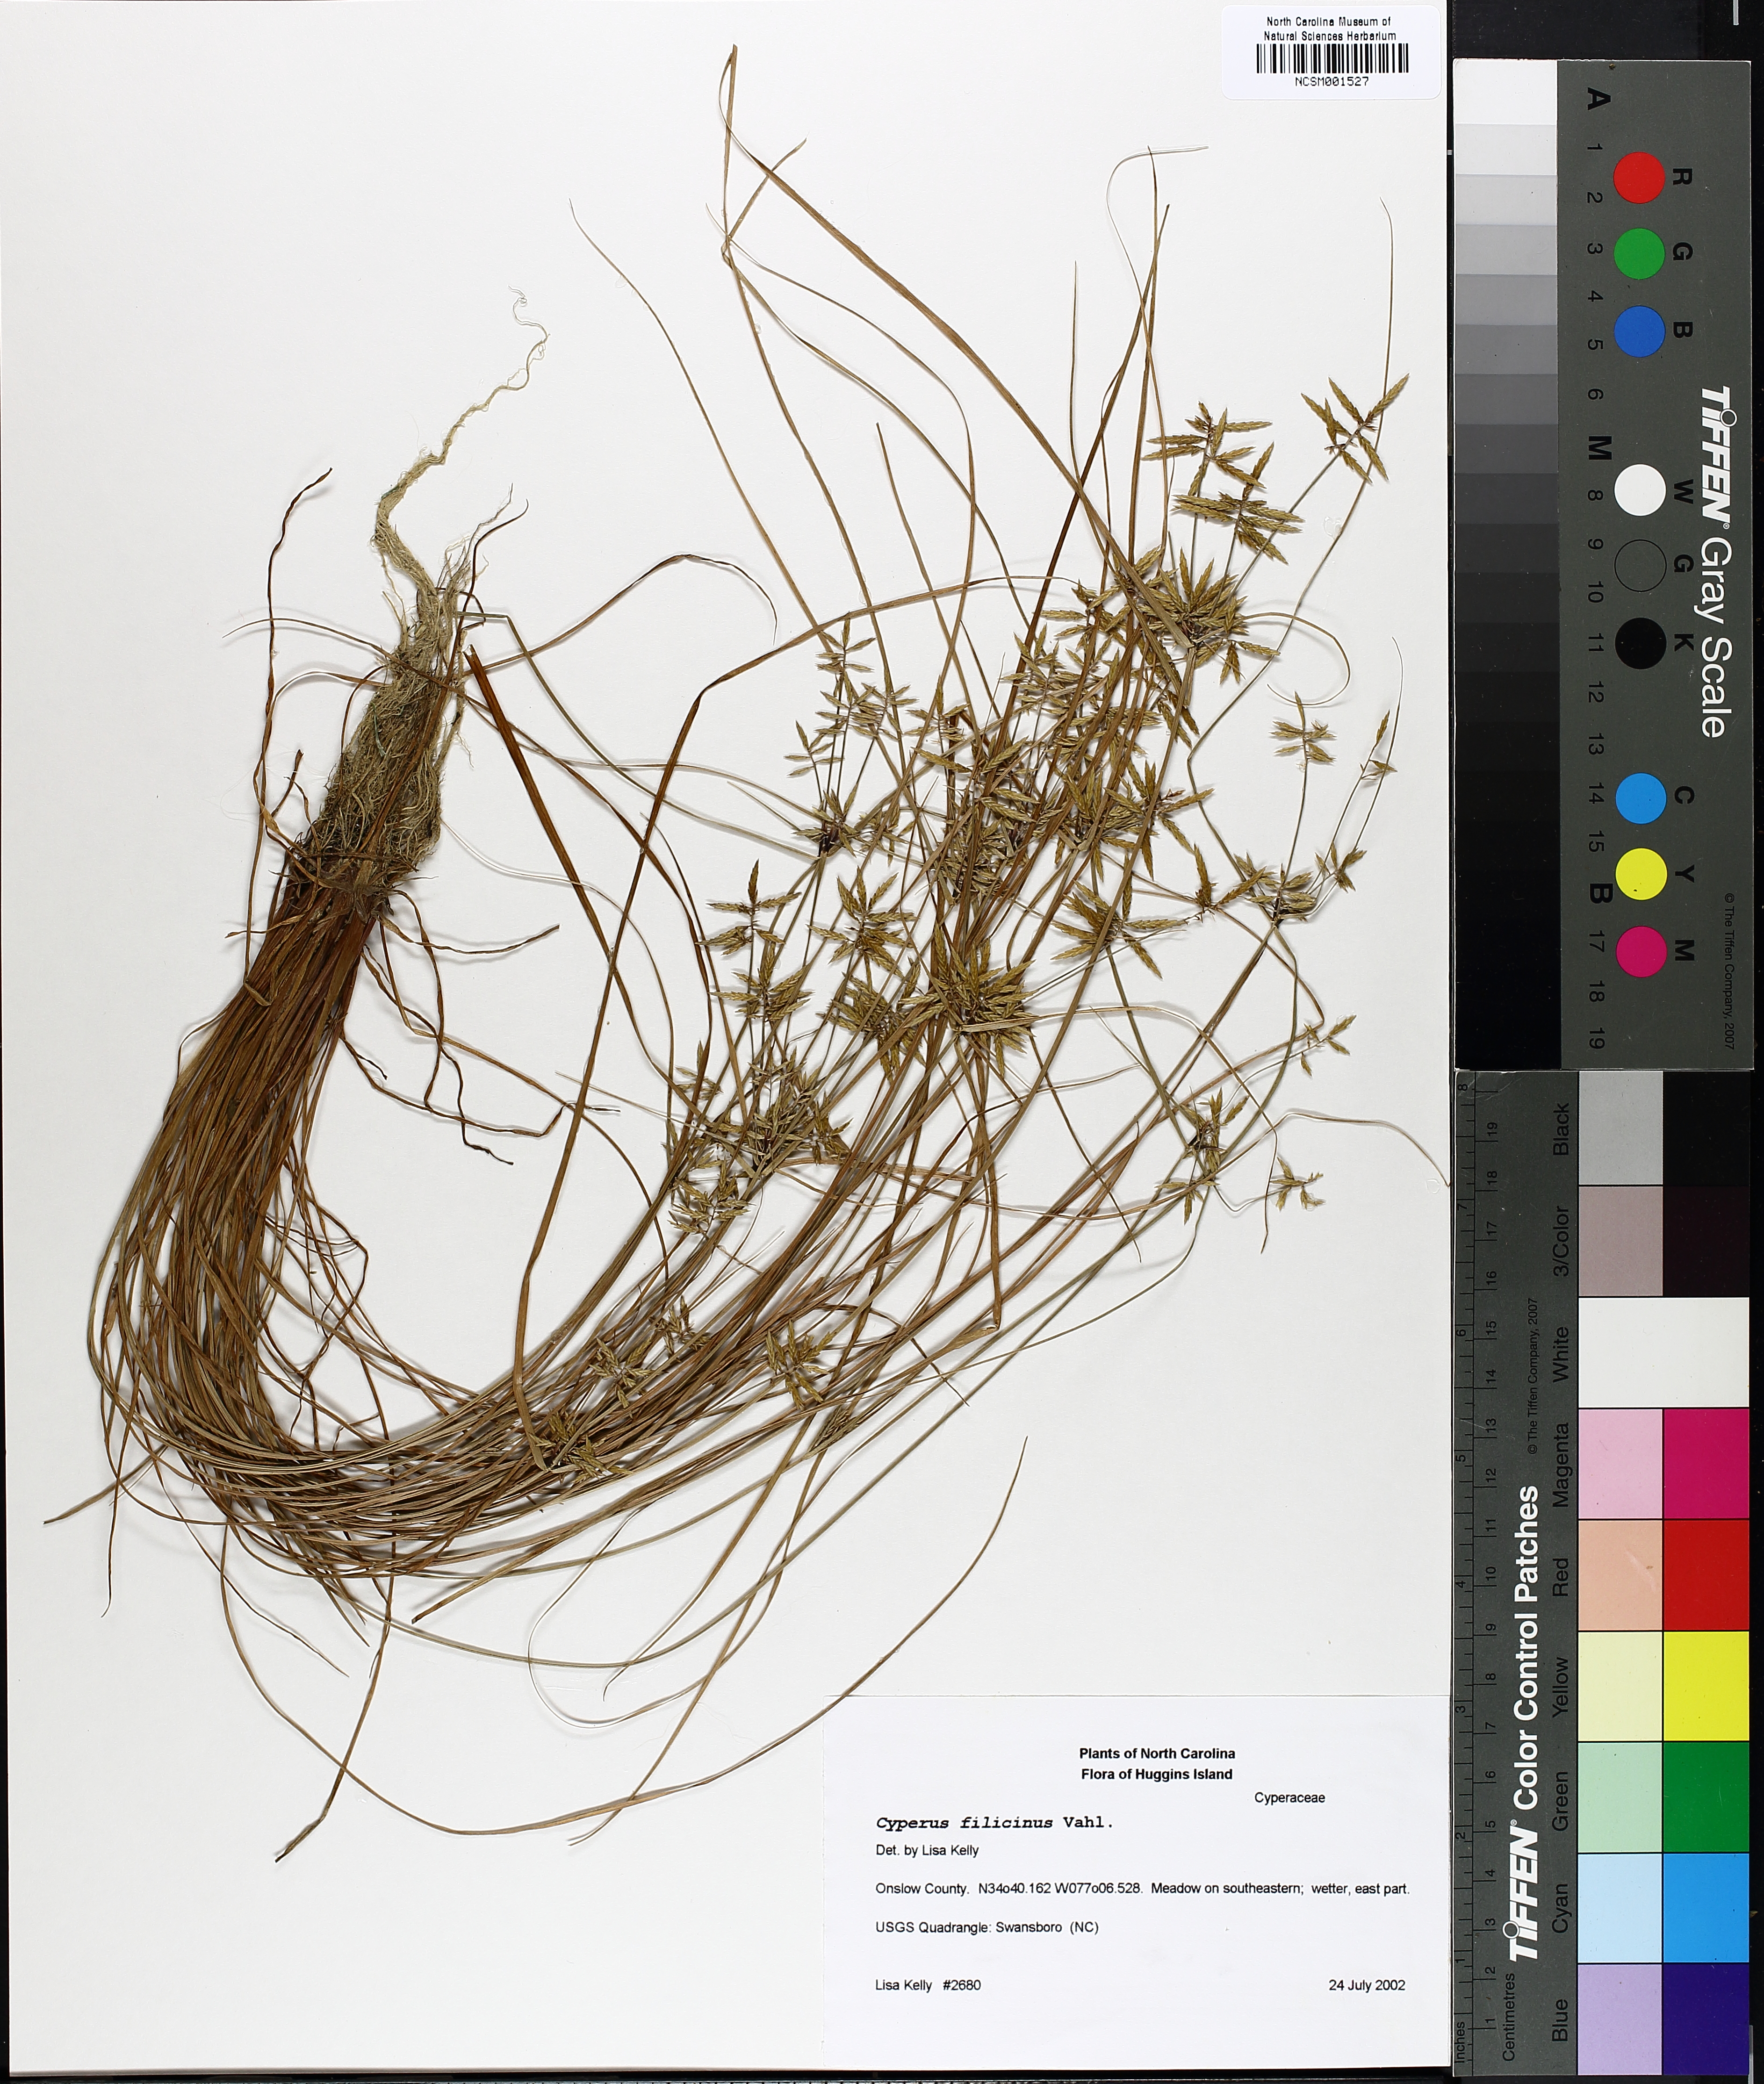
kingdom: Plantae
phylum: Tracheophyta
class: Liliopsida
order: Poales
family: Cyperaceae
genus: Cyperus
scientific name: Cyperus filicinus
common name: Fern flatsedge
